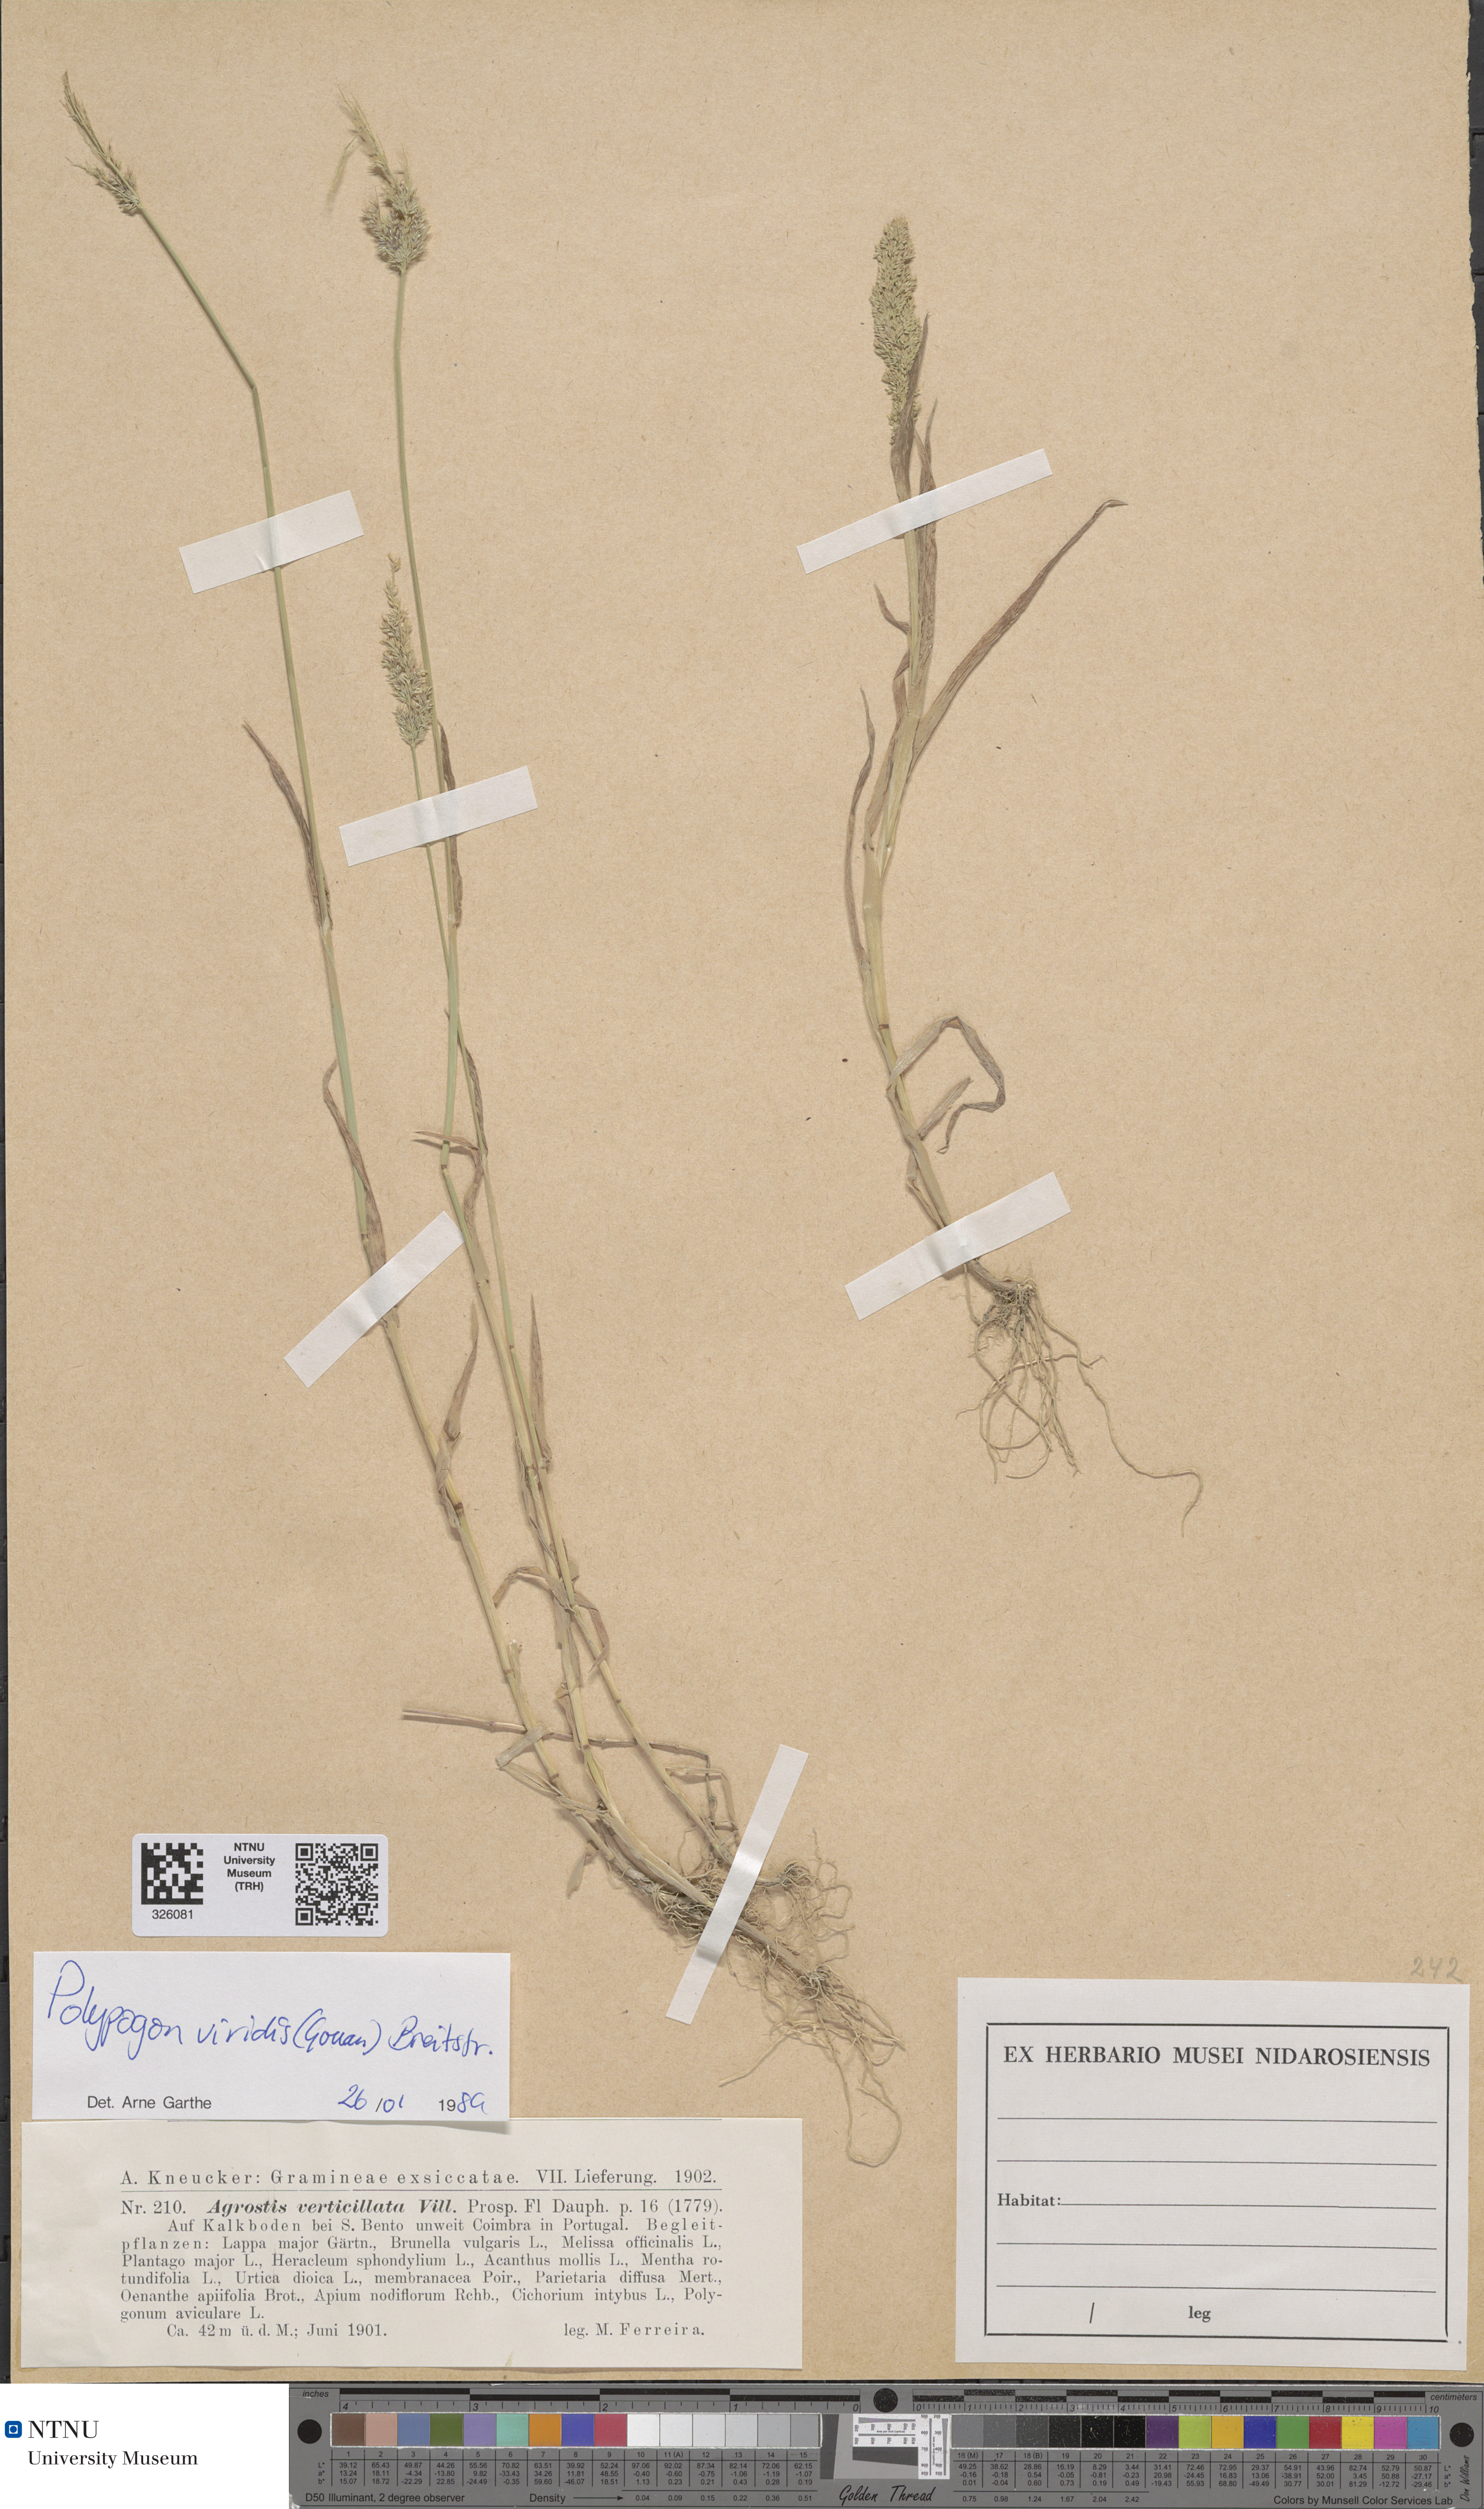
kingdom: Plantae
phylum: Tracheophyta
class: Liliopsida
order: Poales
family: Poaceae
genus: Polypogon
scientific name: Polypogon viridis
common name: Water bent
